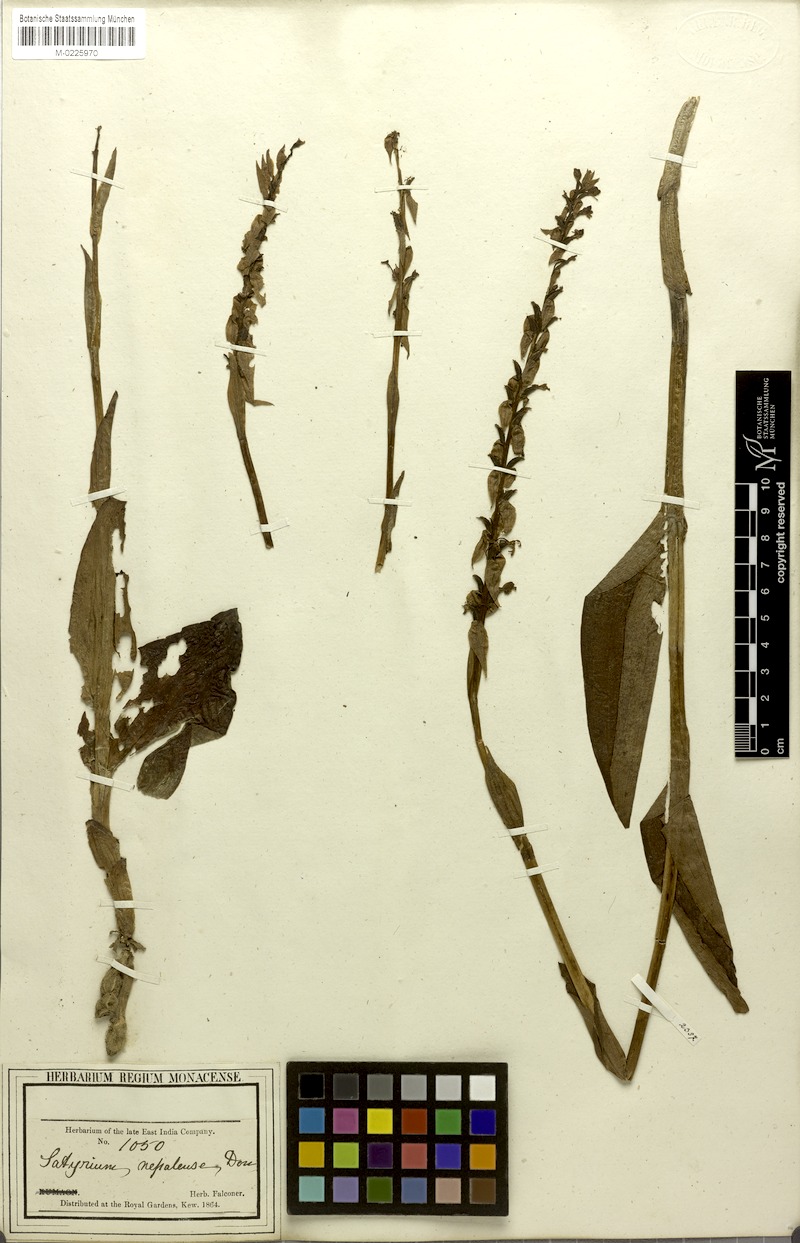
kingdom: Plantae
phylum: Tracheophyta
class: Liliopsida
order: Asparagales
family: Orchidaceae
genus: Satyrium
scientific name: Satyrium nepalense
